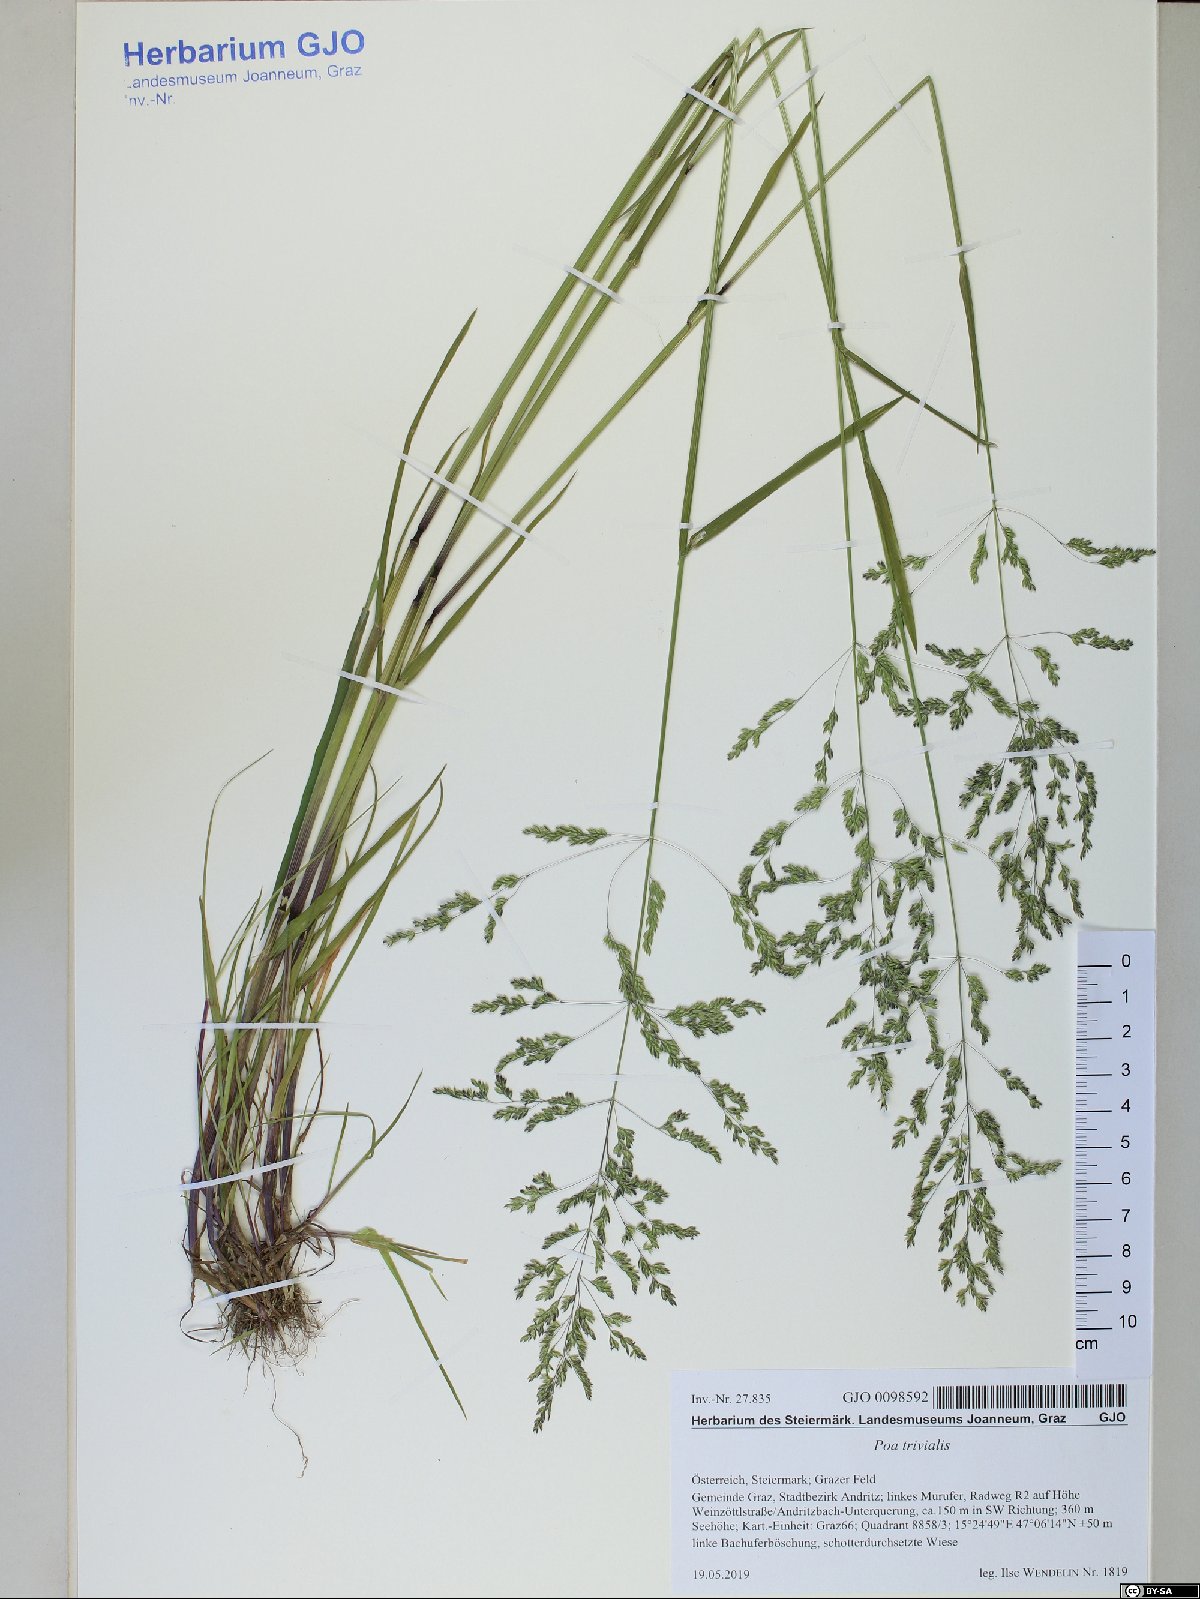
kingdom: Plantae
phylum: Tracheophyta
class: Liliopsida
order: Poales
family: Poaceae
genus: Poa
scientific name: Poa trivialis
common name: Rough bluegrass
